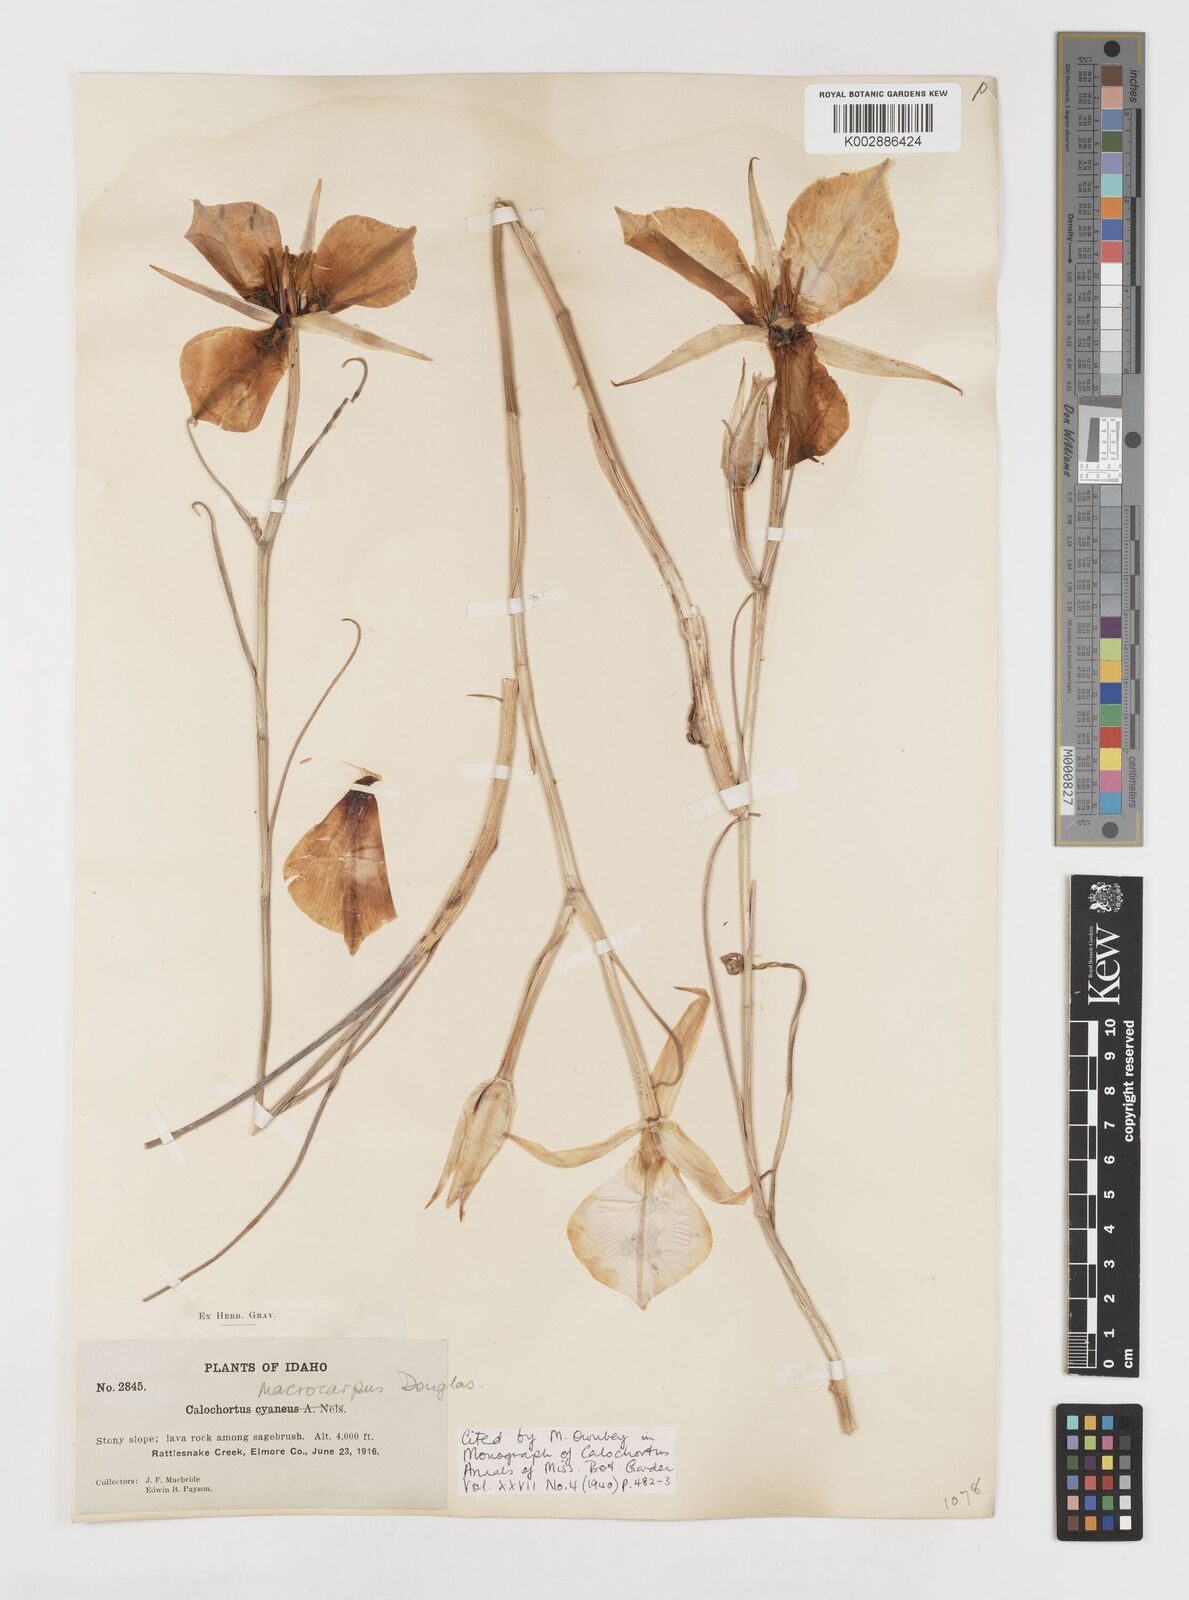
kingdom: Plantae
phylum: Tracheophyta
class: Liliopsida
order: Liliales
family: Liliaceae
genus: Calochortus
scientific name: Calochortus macrocarpus
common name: Green-band mariposa lily
